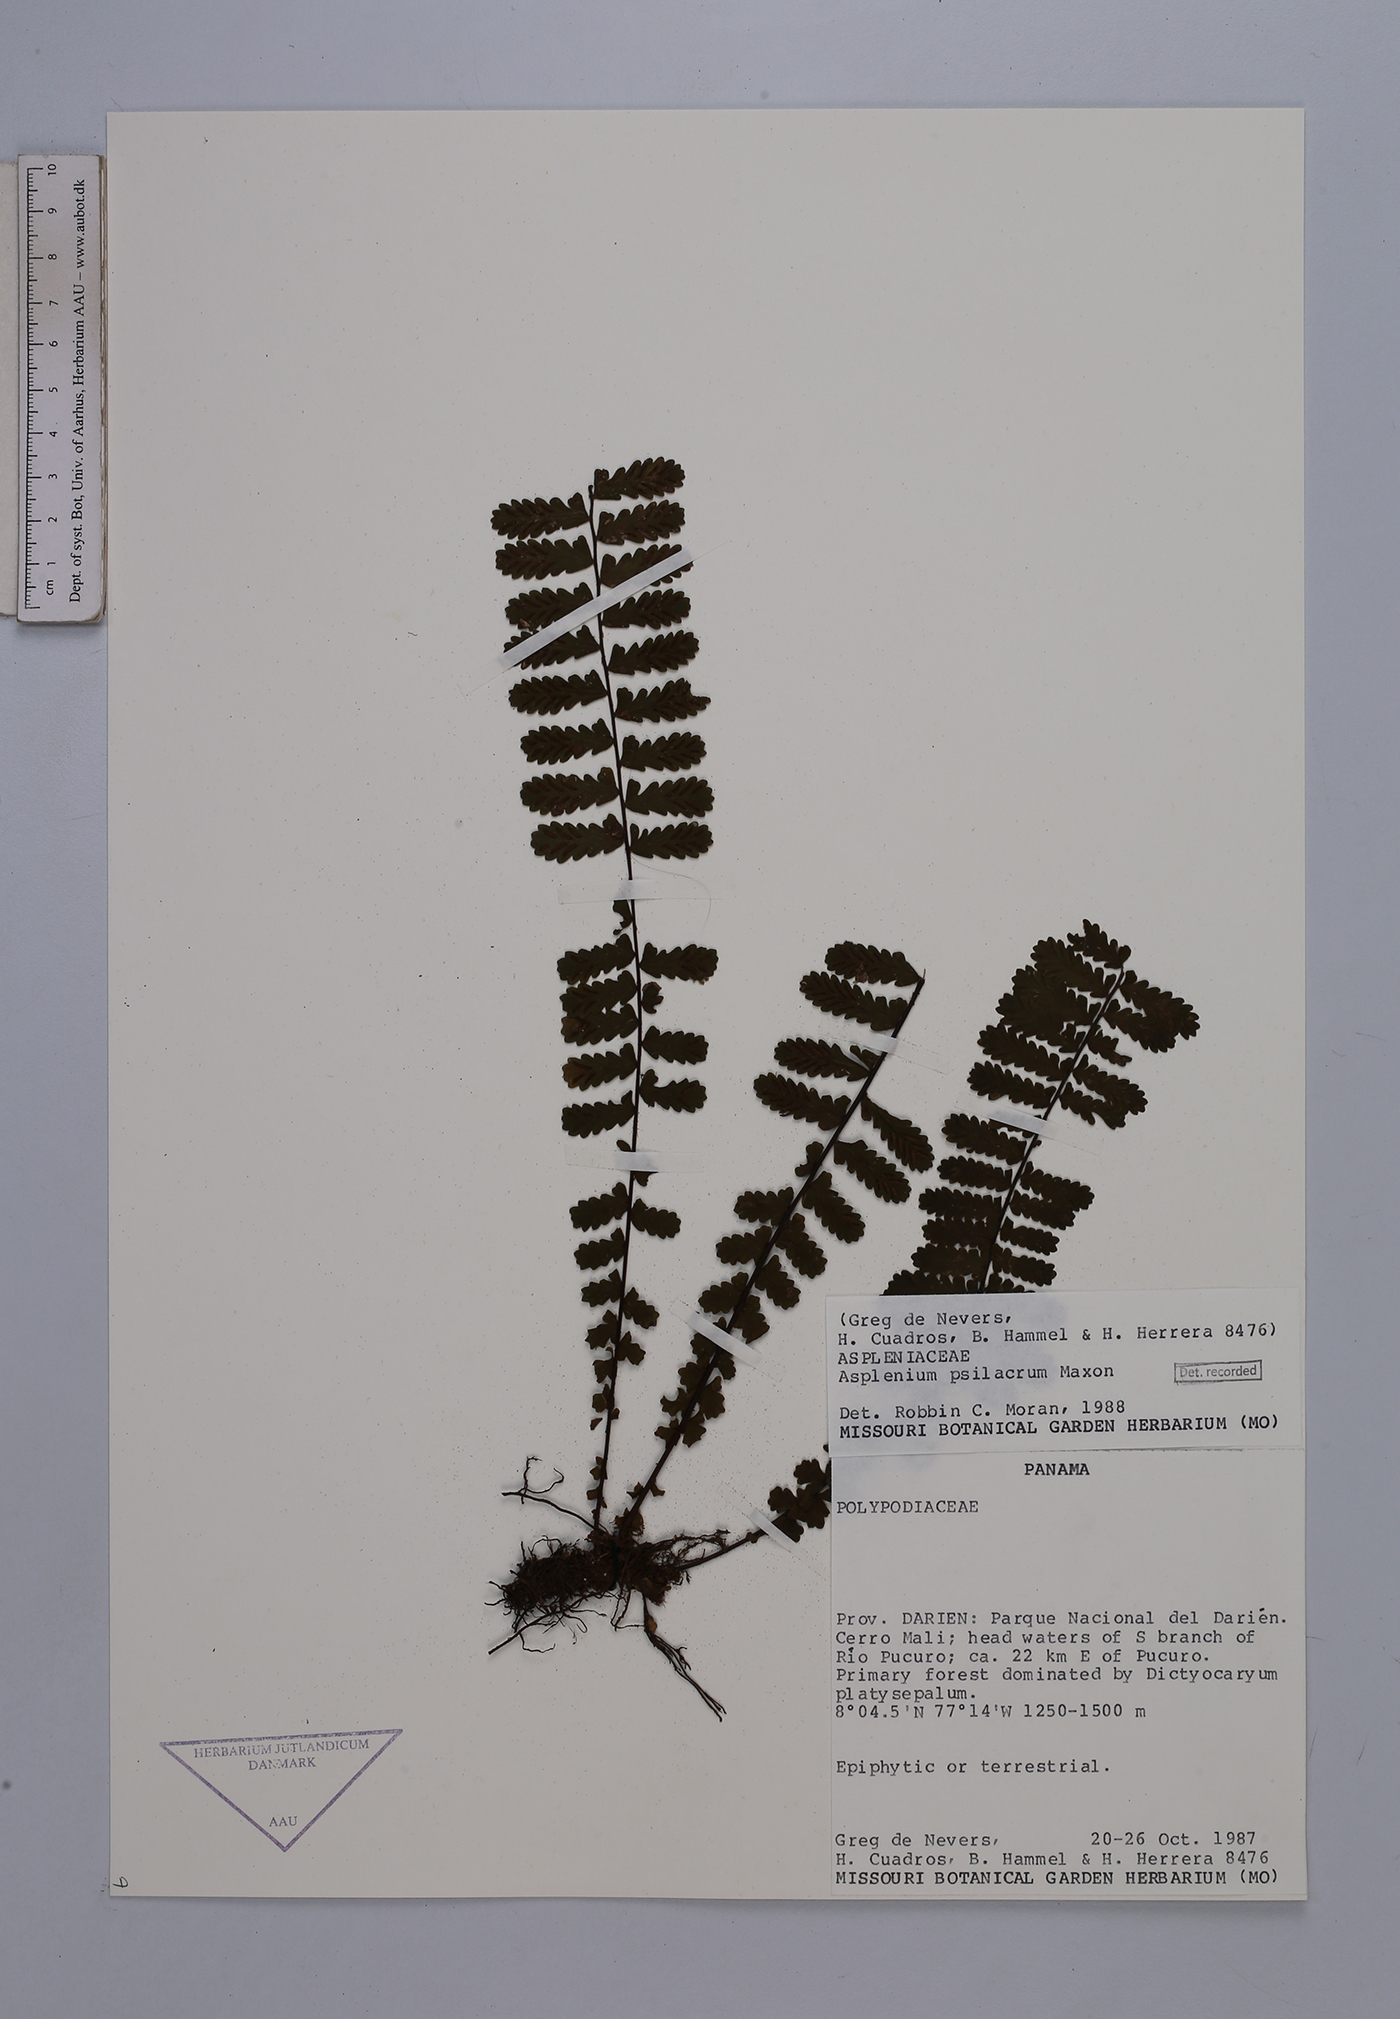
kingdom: Plantae
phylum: Tracheophyta
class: Polypodiopsida
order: Polypodiales
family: Aspleniaceae
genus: Asplenium
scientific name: Asplenium oblongatum
